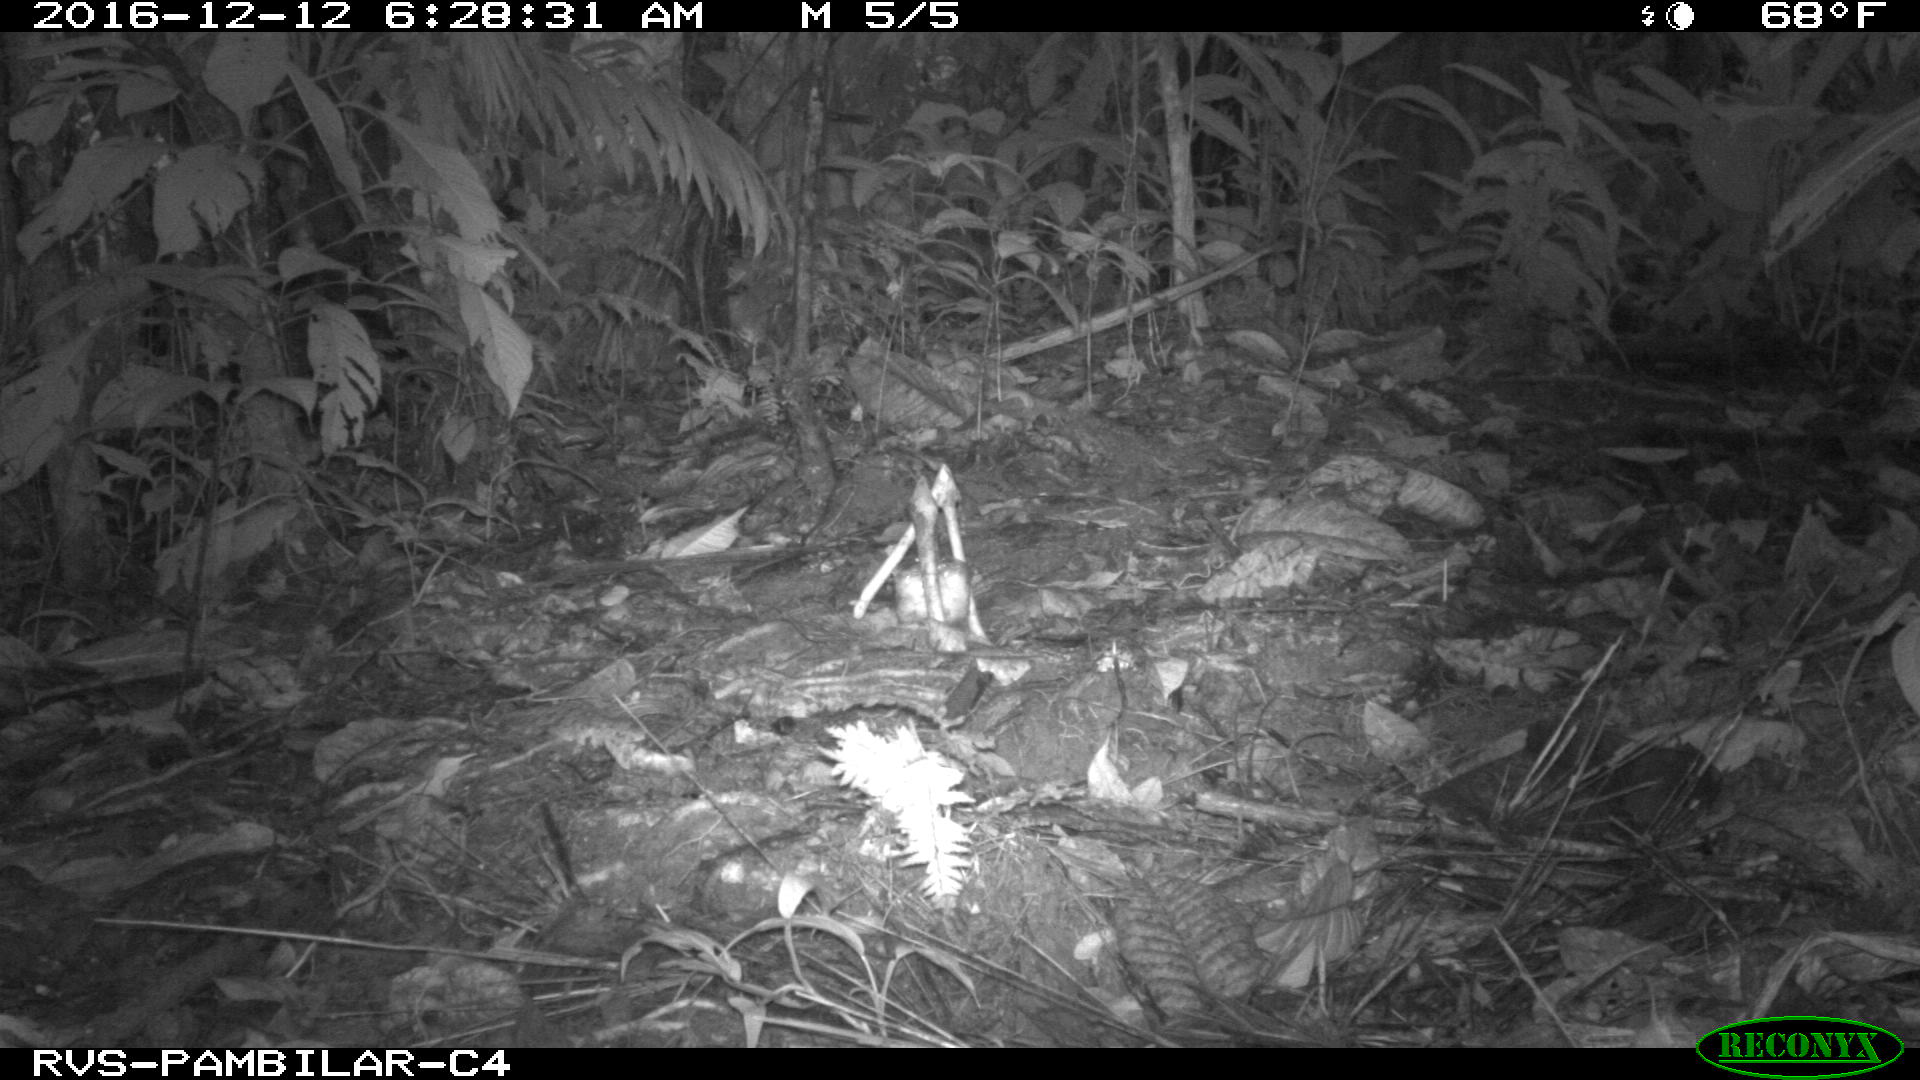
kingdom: Animalia
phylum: Chordata
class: Mammalia
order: Rodentia
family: Dasyproctidae
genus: Dasyprocta
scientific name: Dasyprocta punctata
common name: Central american agouti
